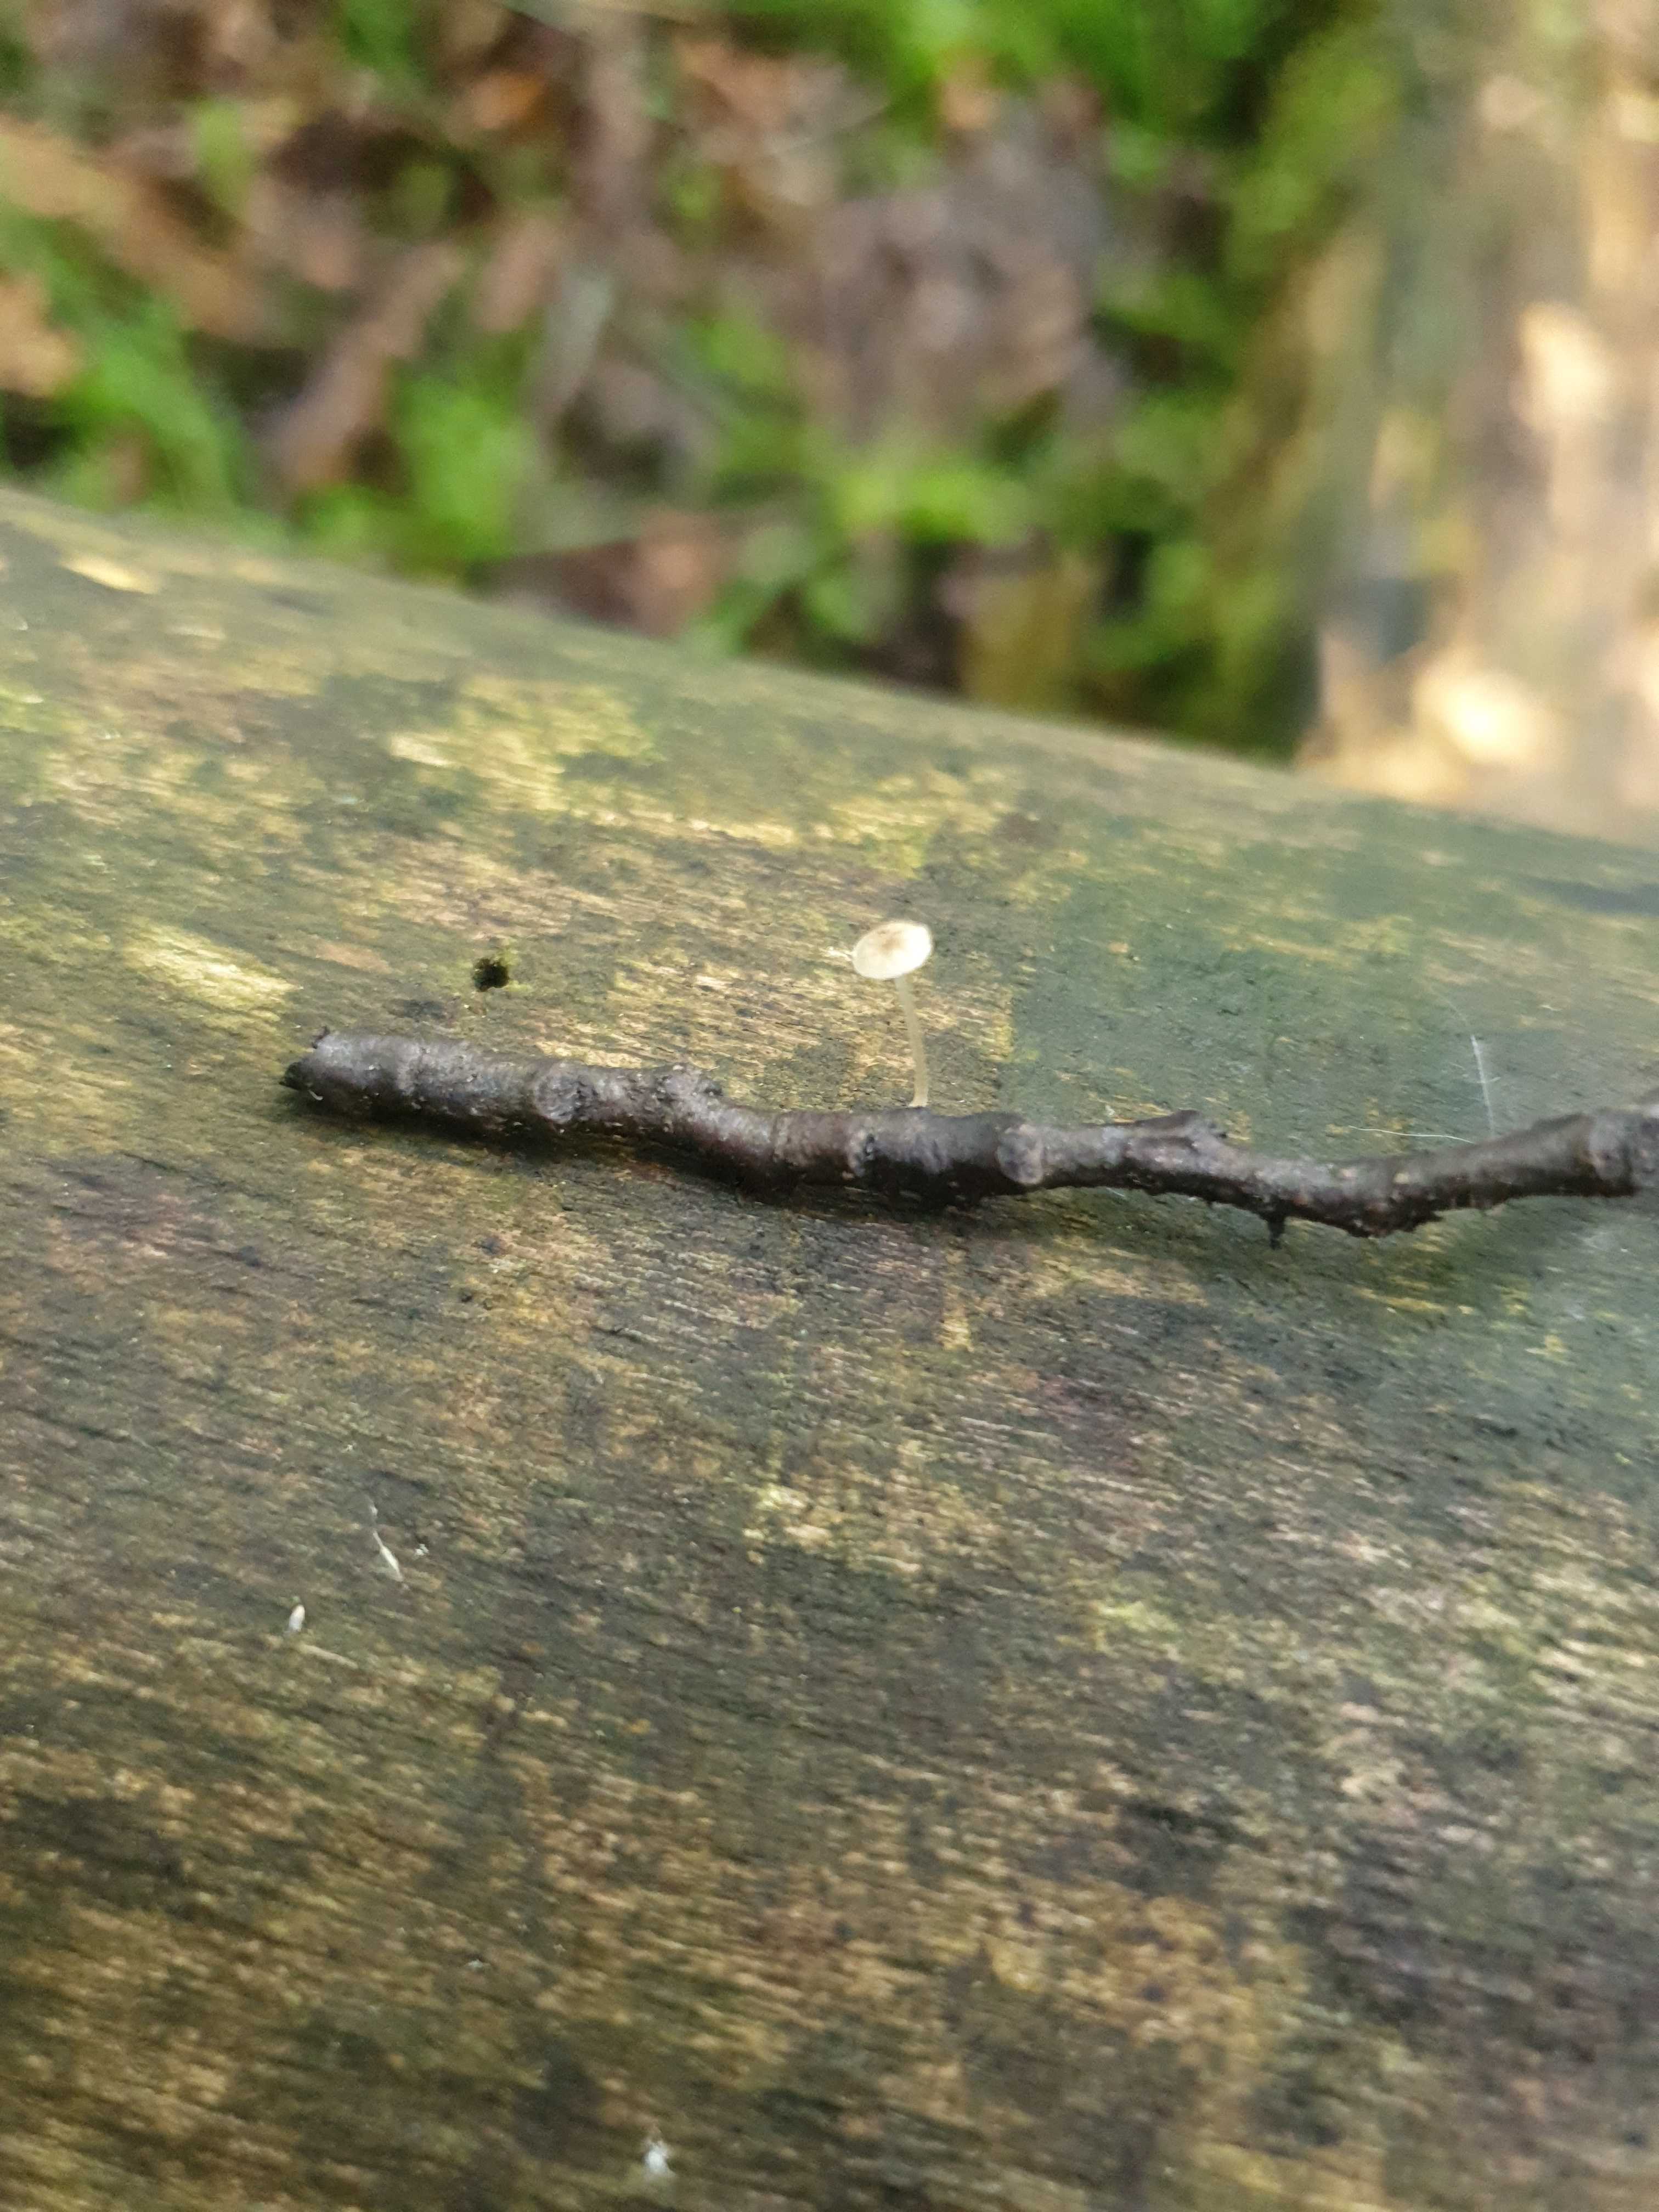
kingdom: Fungi
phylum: Basidiomycota
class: Agaricomycetes
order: Agaricales
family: Porotheleaceae
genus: Phloeomana
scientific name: Phloeomana speirea
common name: kvist-huesvamp
